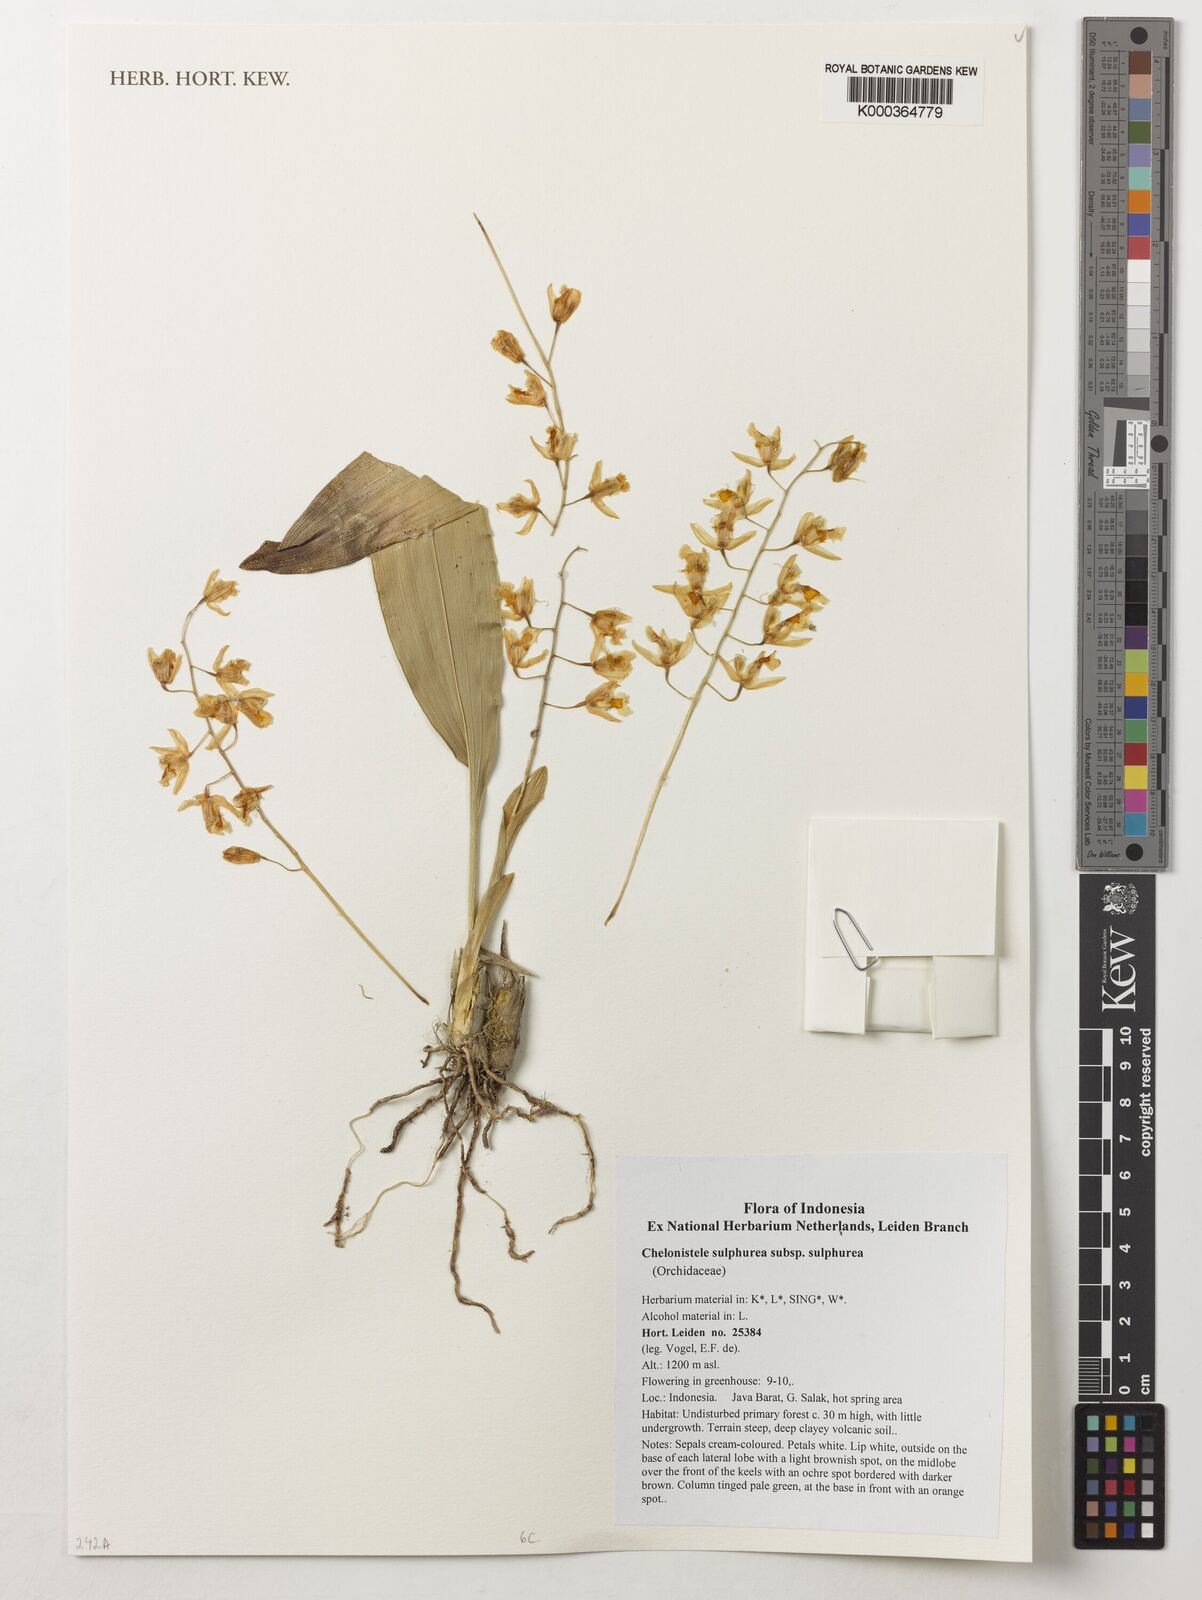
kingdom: Plantae
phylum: Tracheophyta
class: Liliopsida
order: Asparagales
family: Orchidaceae
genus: Coelogyne
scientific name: Coelogyne sulphurea
